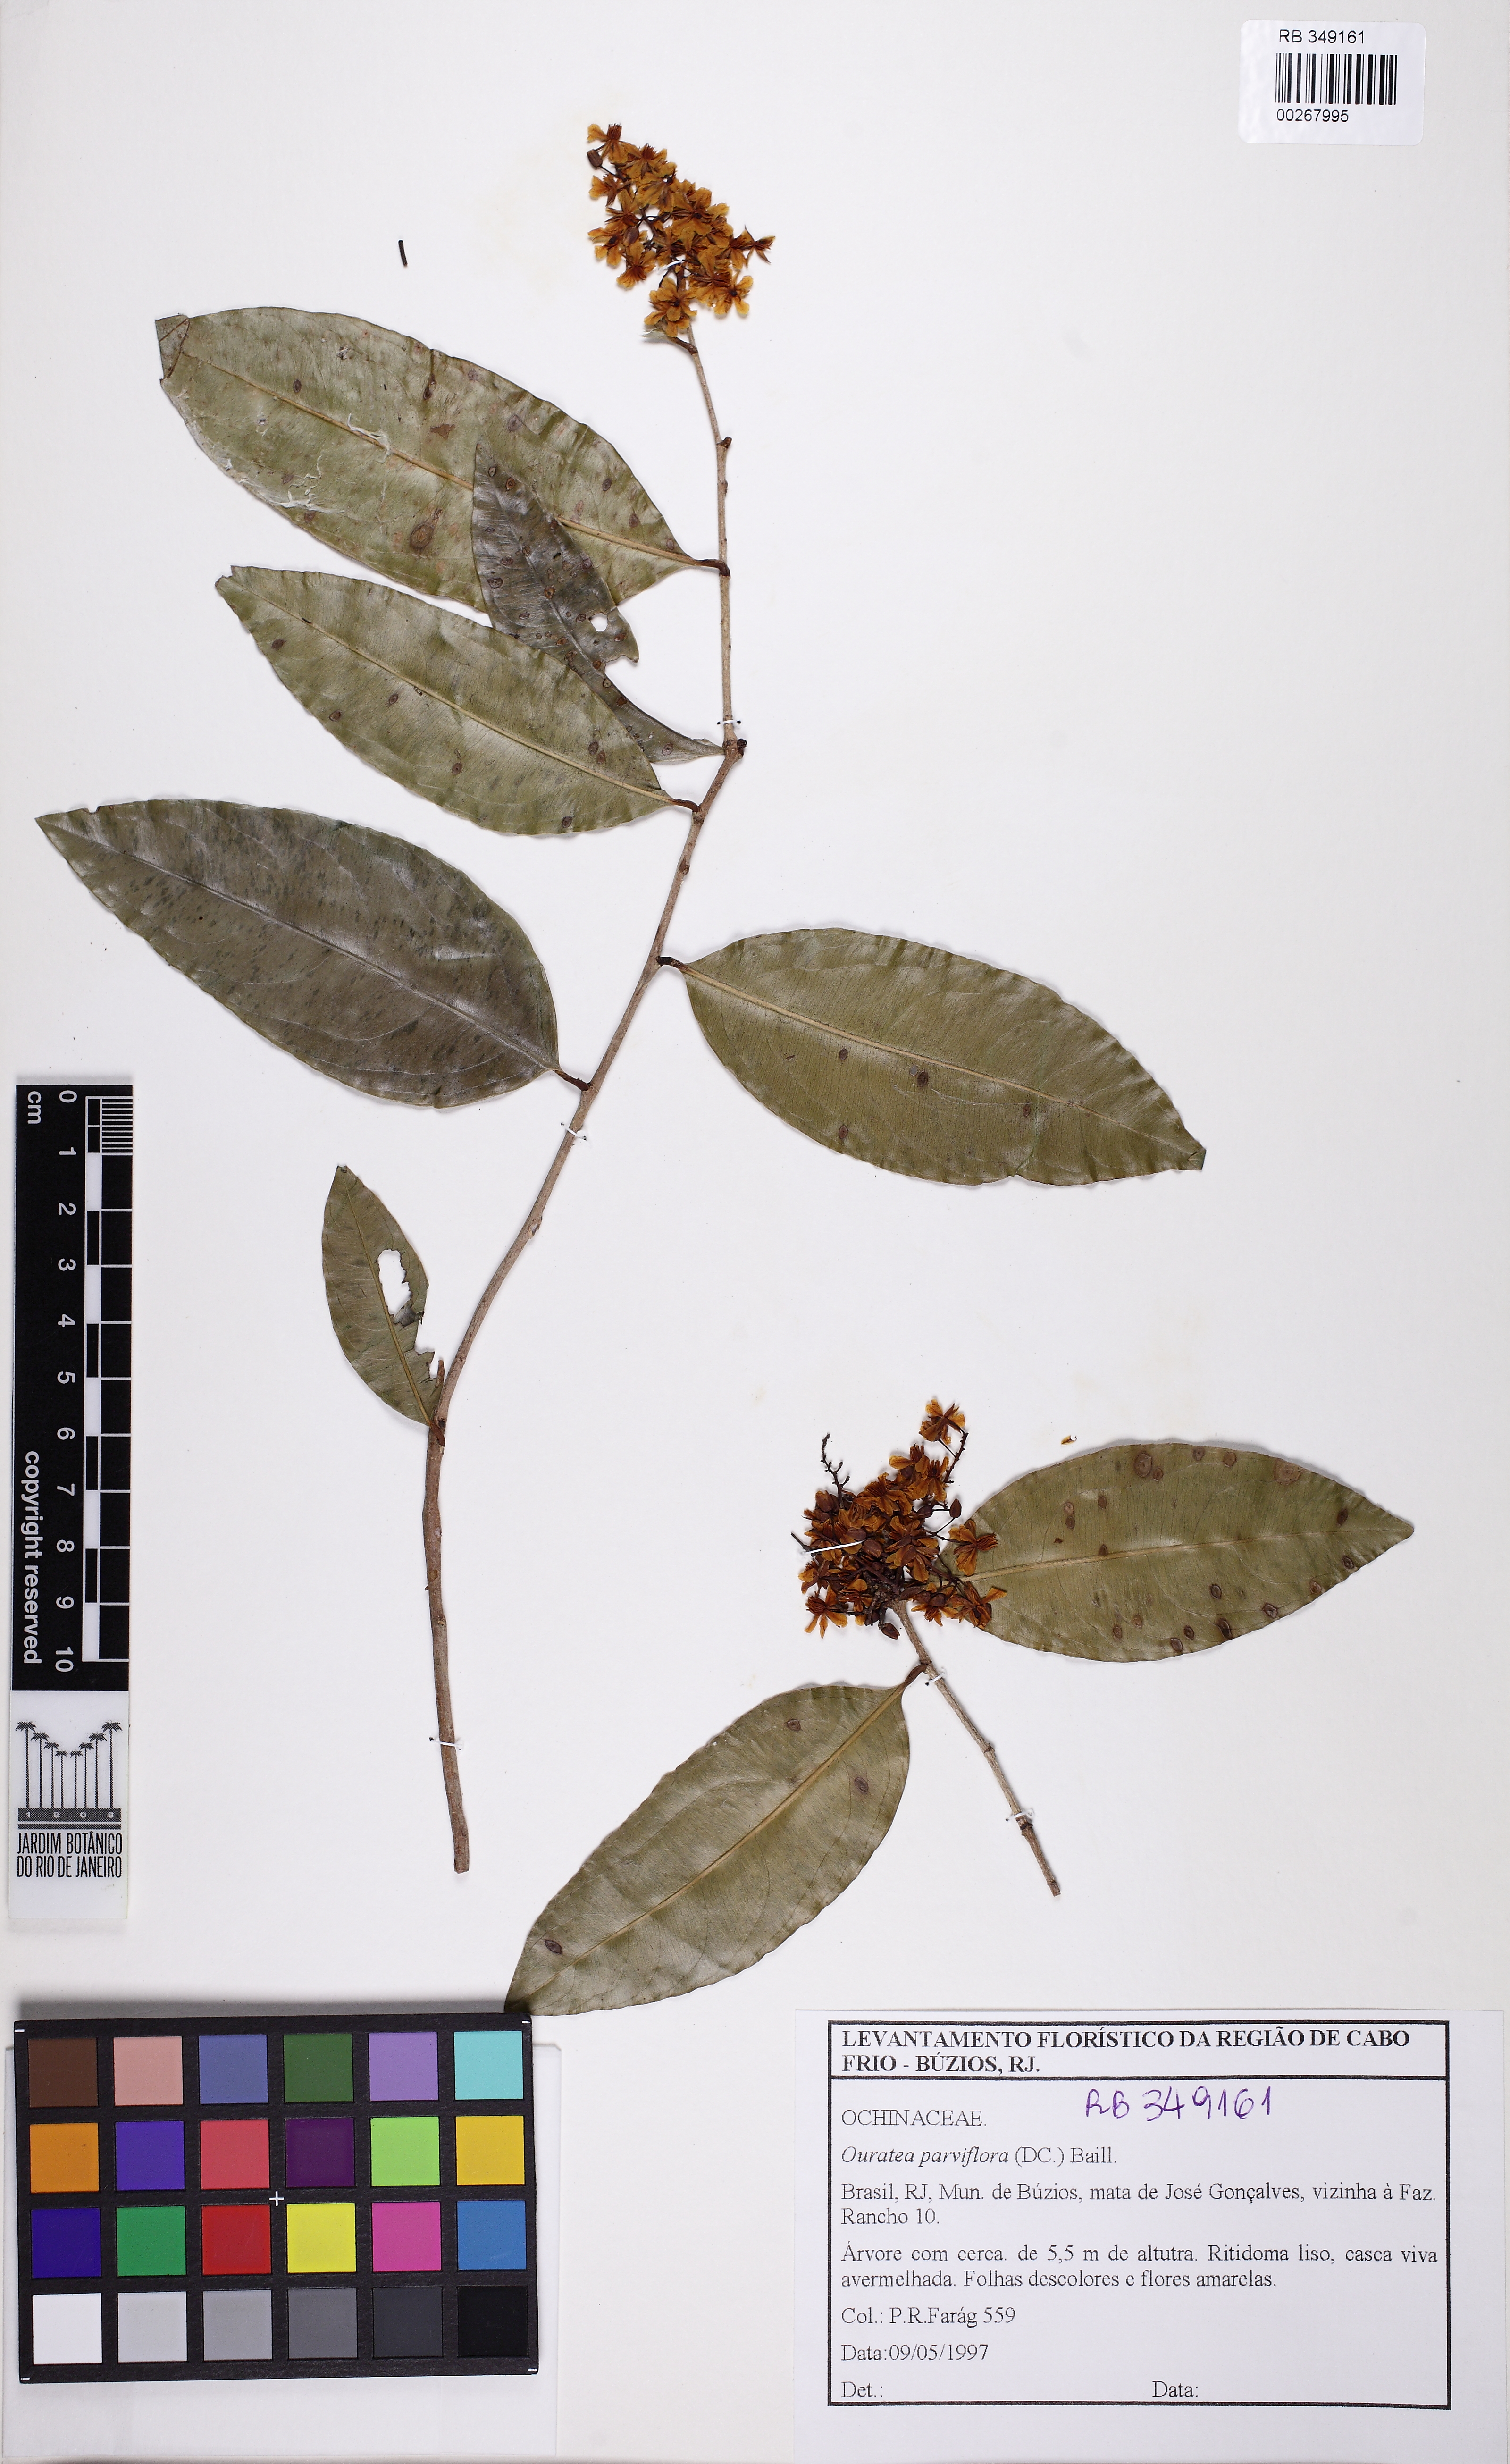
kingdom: Plantae
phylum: Tracheophyta
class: Magnoliopsida
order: Malpighiales
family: Ochnaceae
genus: Ouratea
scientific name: Ouratea parviflora
